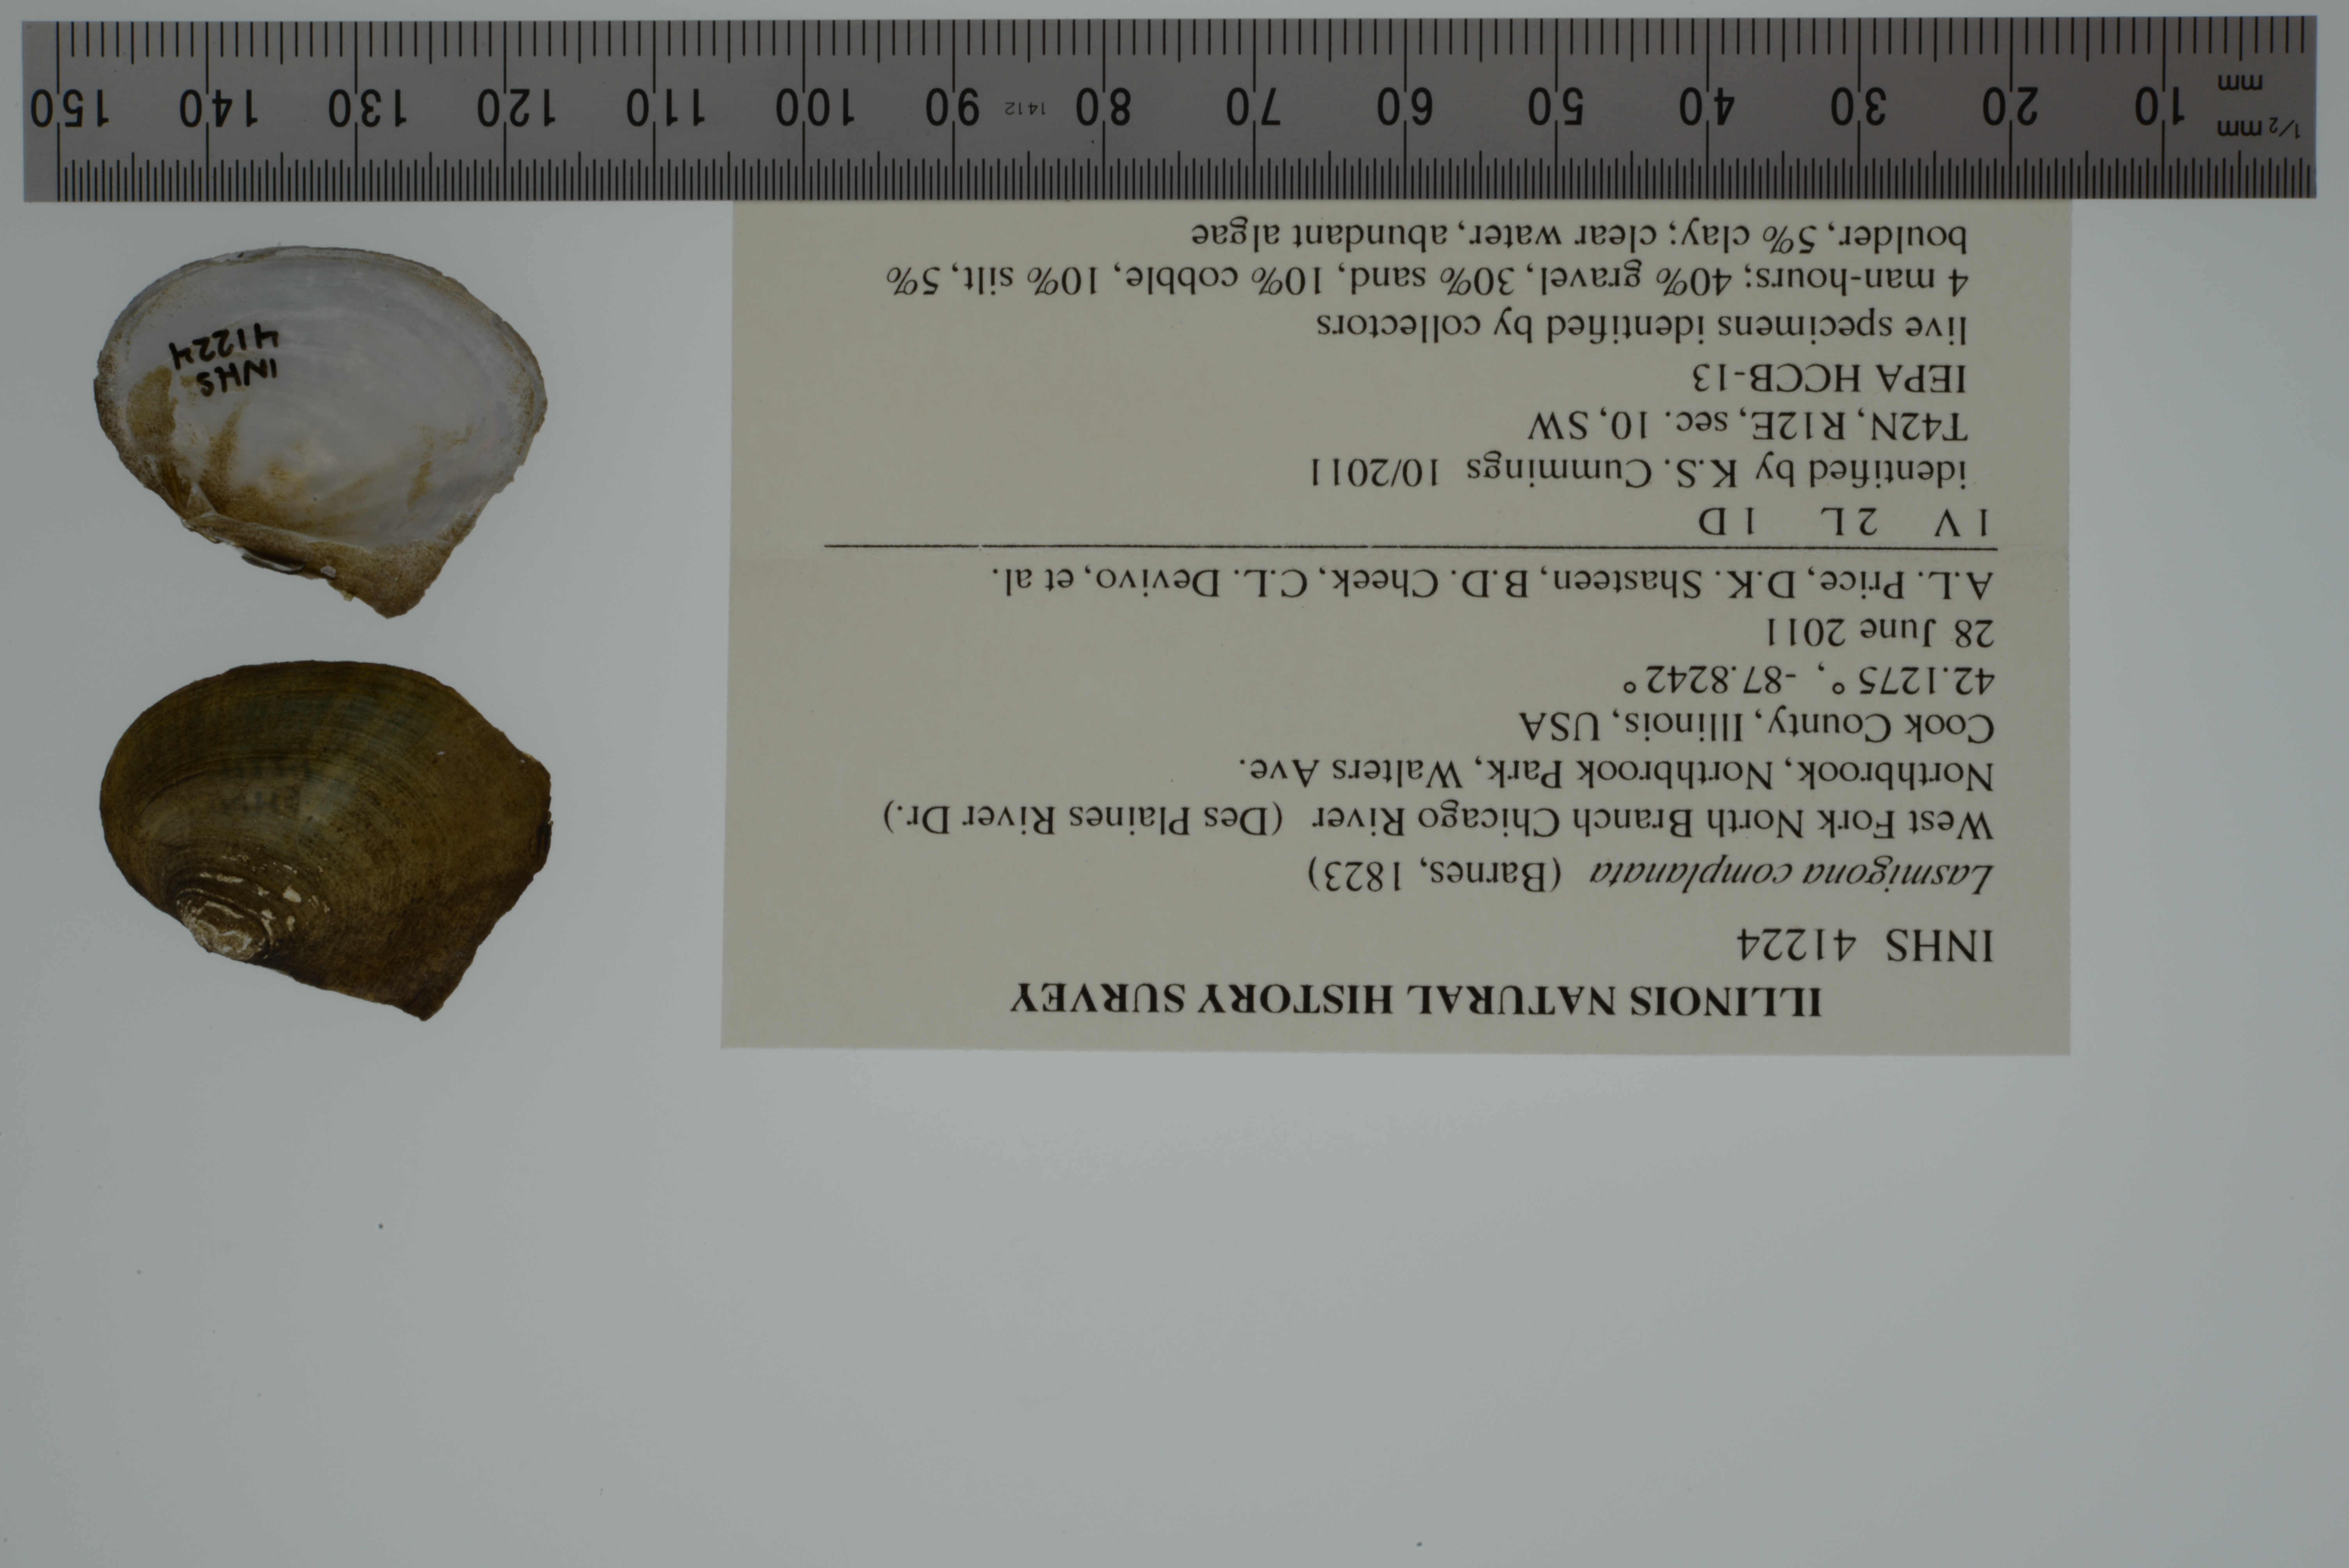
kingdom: Animalia
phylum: Mollusca
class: Bivalvia
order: Unionida
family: Unionidae
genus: Lasmigona
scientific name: Lasmigona complanata
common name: White heelsplitter
